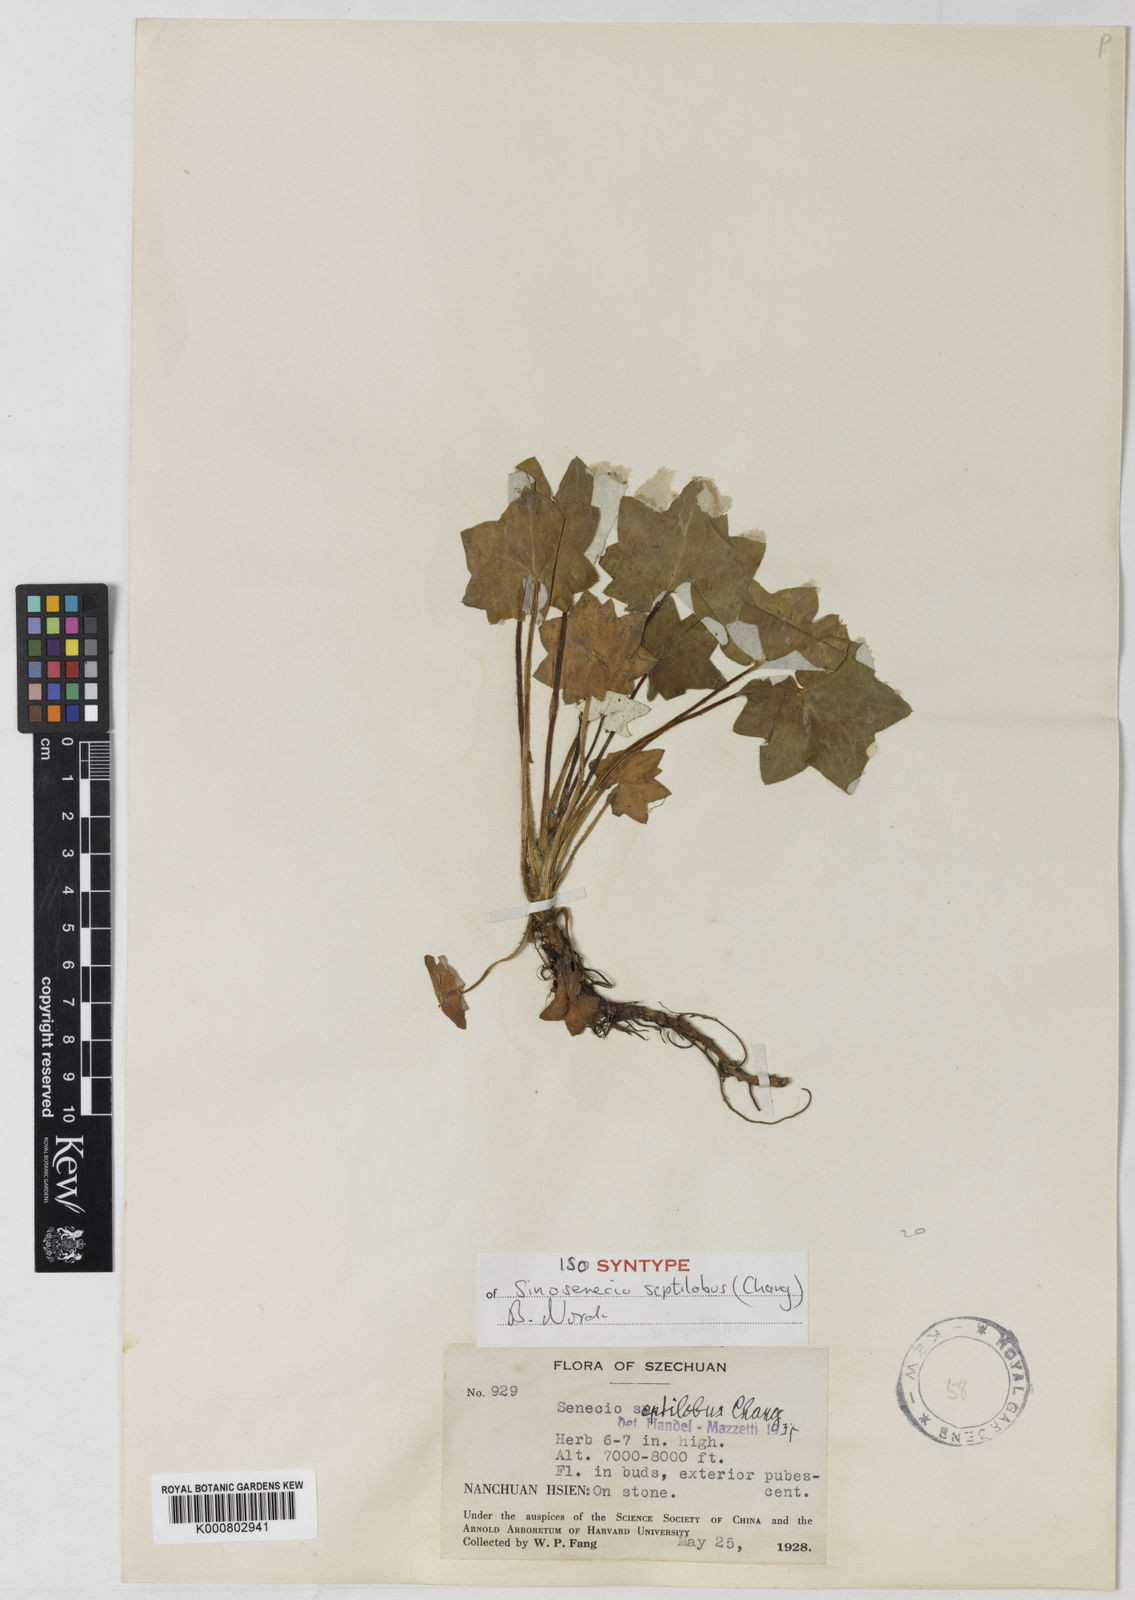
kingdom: Plantae
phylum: Tracheophyta
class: Magnoliopsida
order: Asterales
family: Asteraceae
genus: Sinosenecio
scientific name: Sinosenecio septilobus
